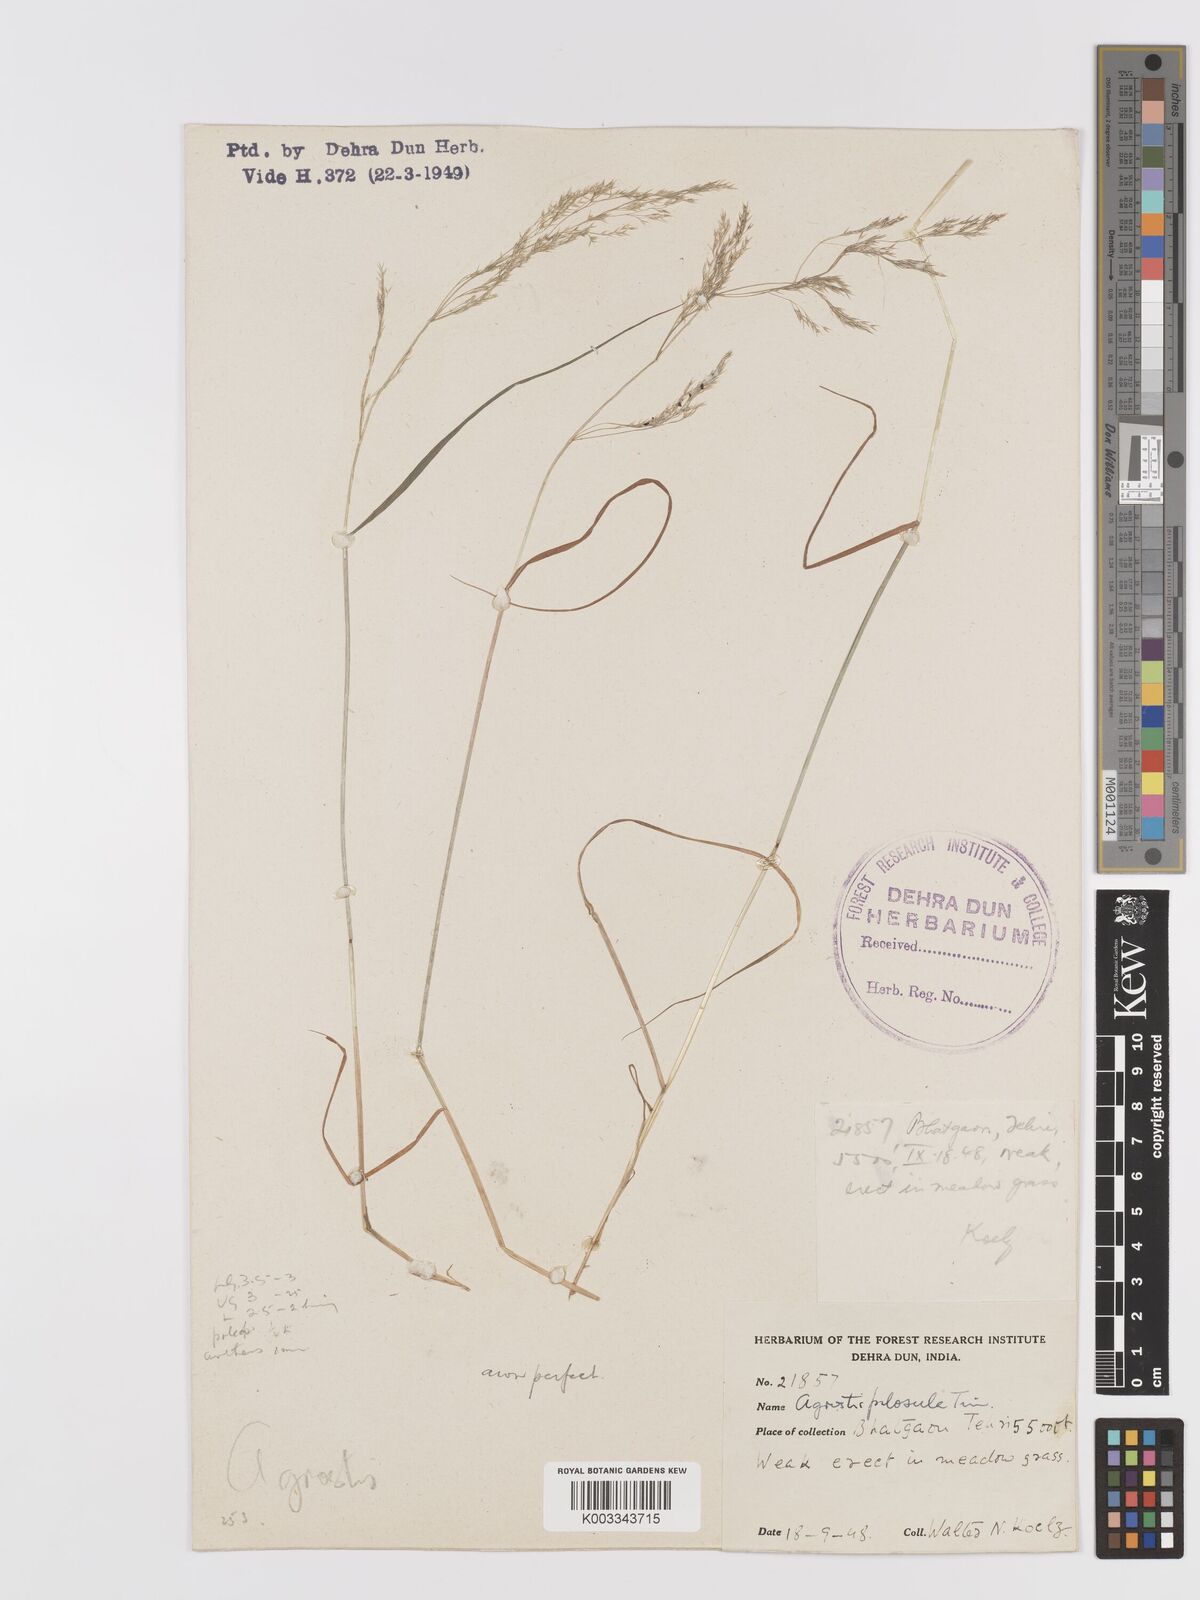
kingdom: Plantae
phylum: Tracheophyta
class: Liliopsida
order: Poales
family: Poaceae
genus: Agrostis
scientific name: Agrostis pilosula
